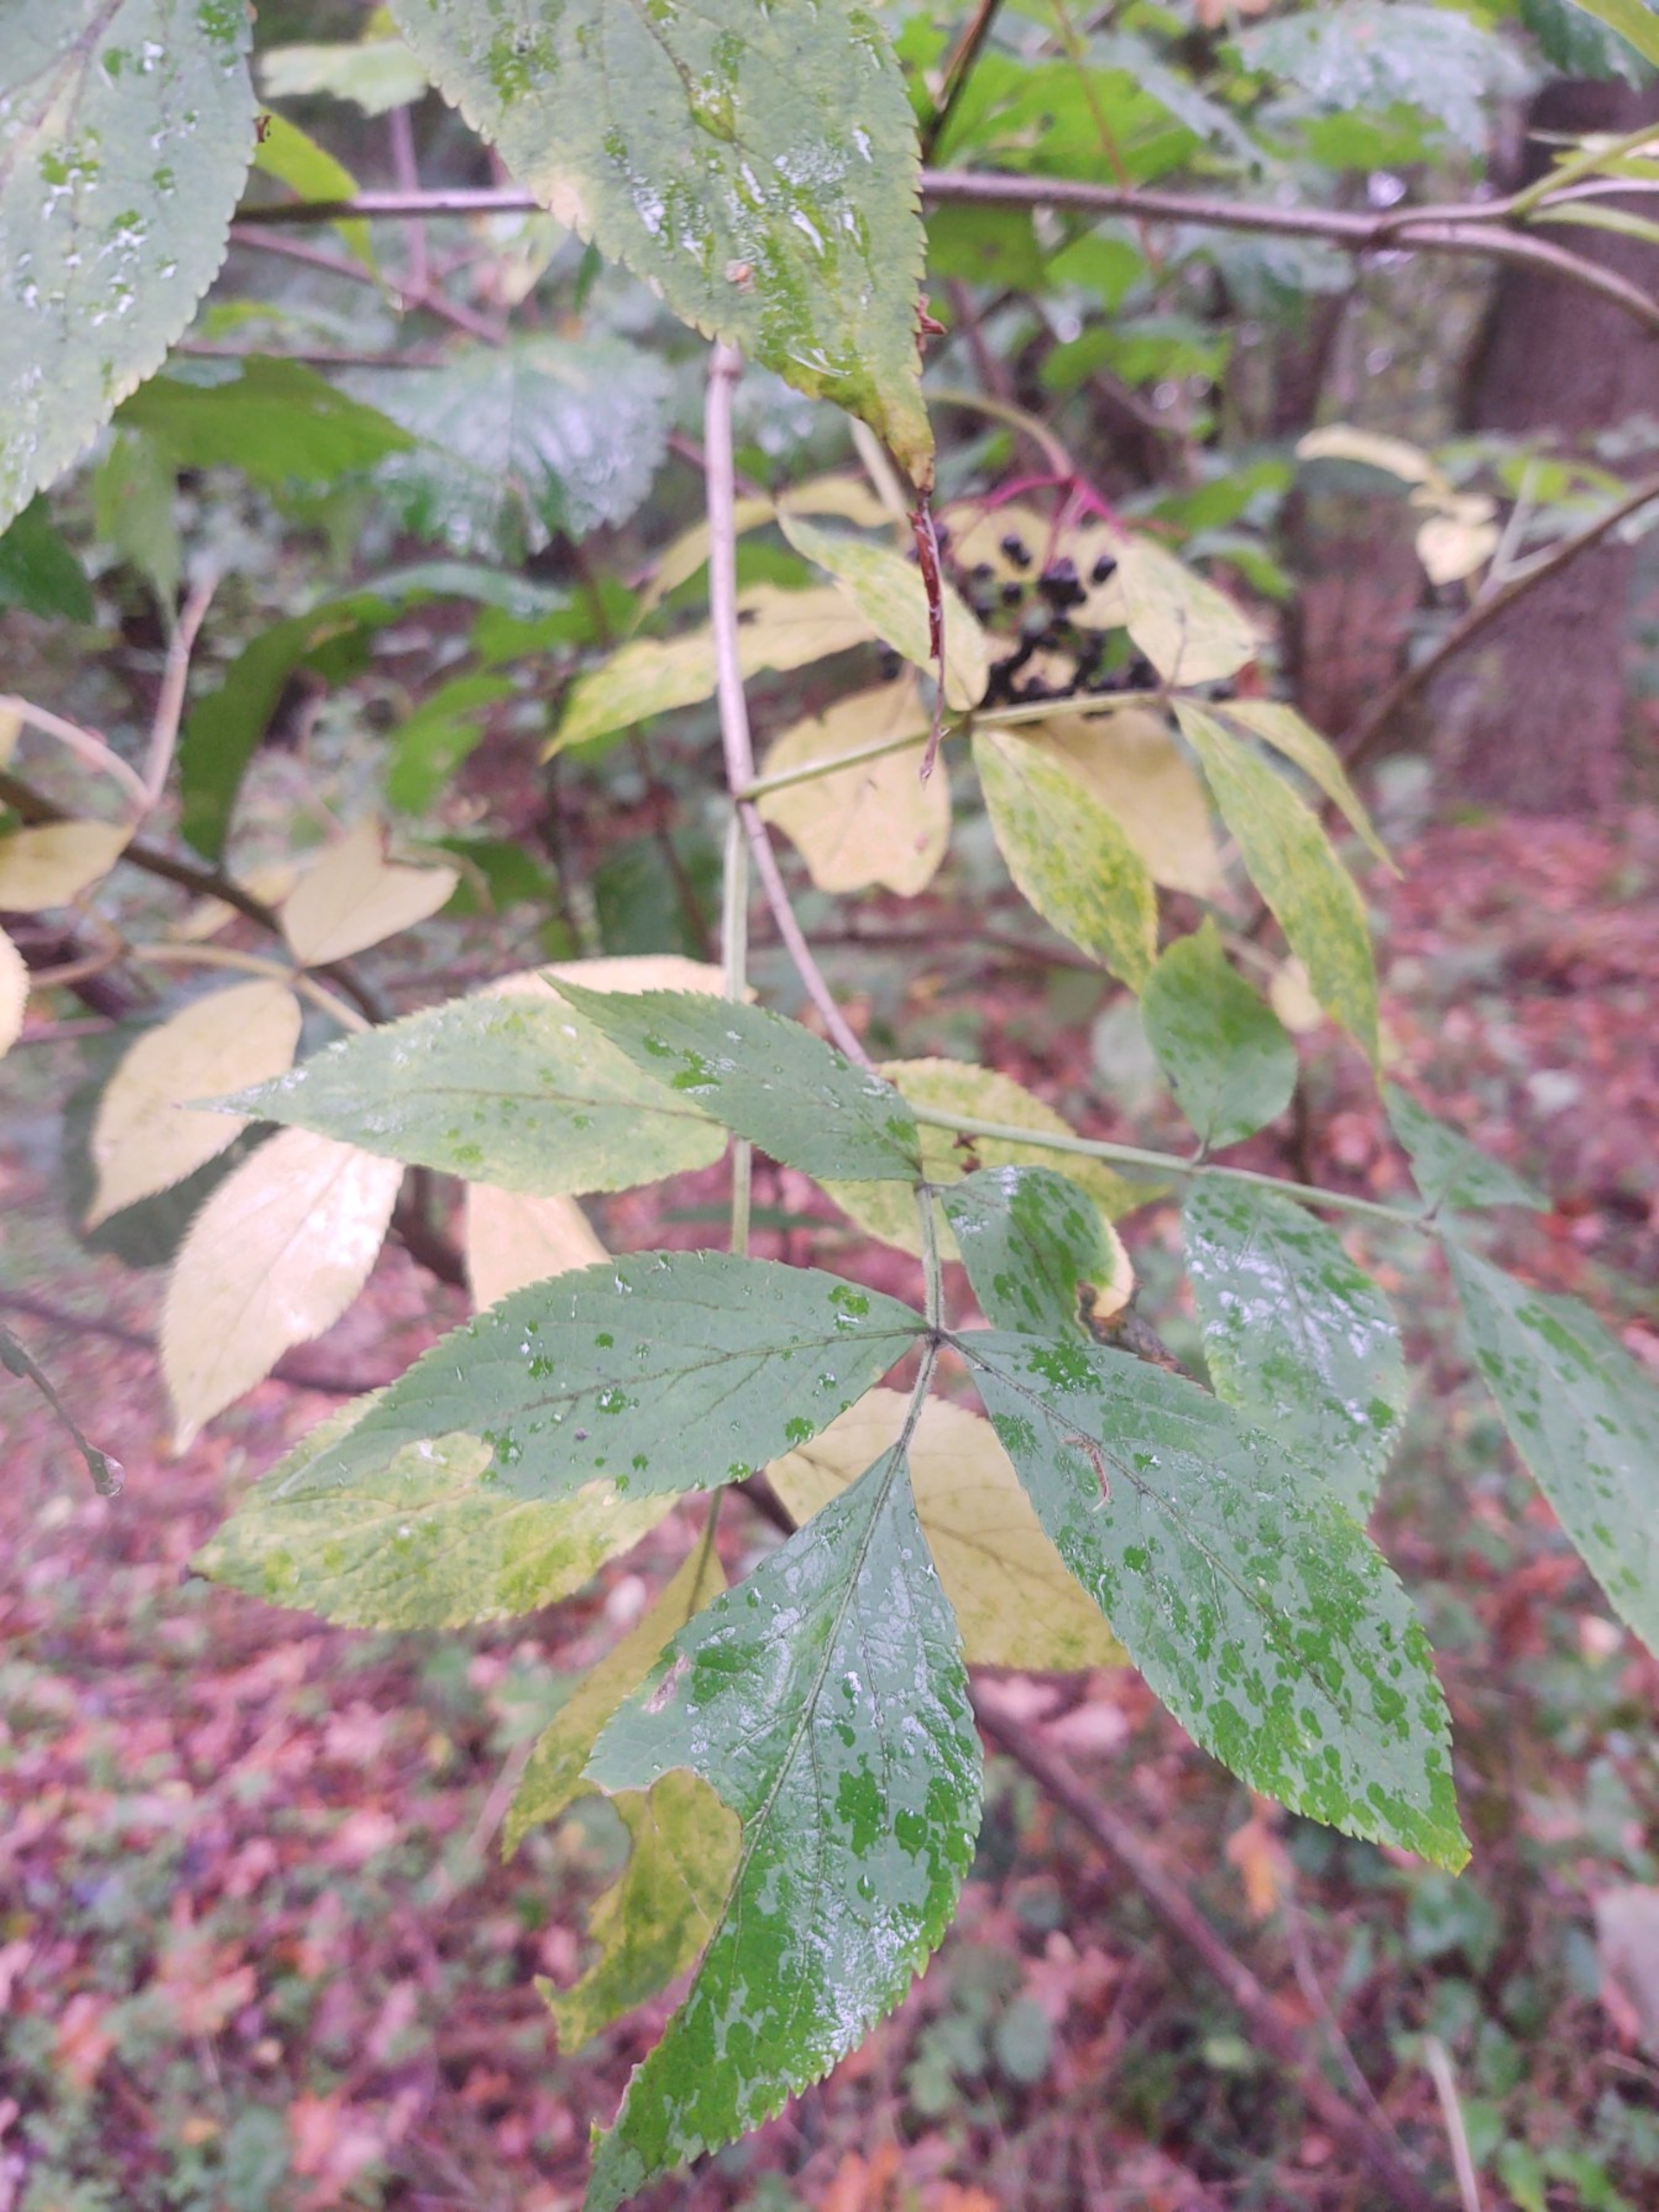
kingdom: Plantae
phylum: Tracheophyta
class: Magnoliopsida
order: Dipsacales
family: Viburnaceae
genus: Sambucus
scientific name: Sambucus nigra
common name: Almindelig hyld
